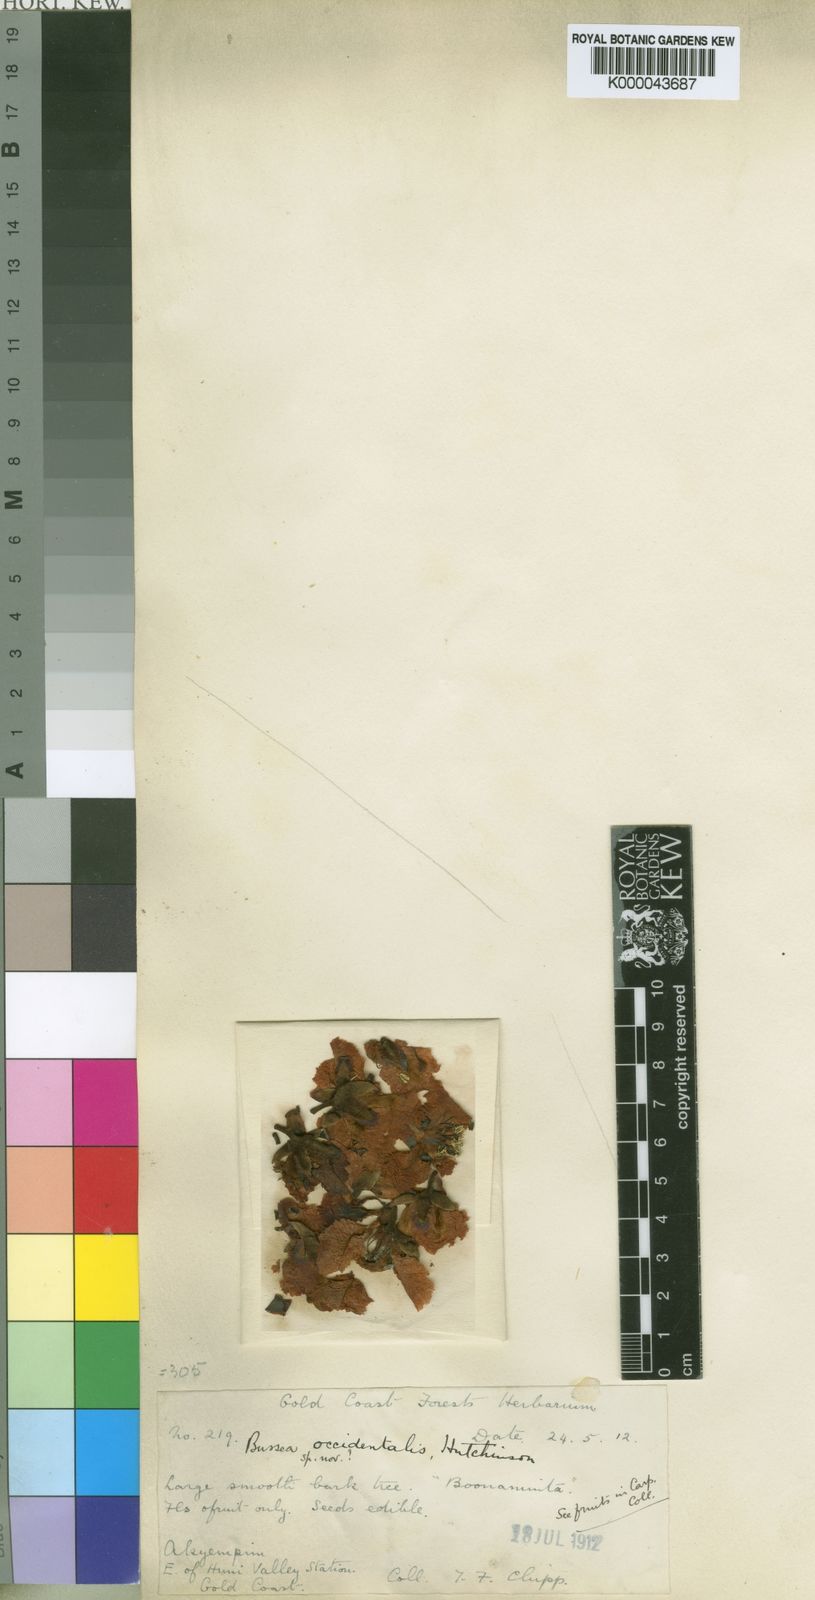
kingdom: Plantae
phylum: Tracheophyta
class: Magnoliopsida
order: Fabales
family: Fabaceae
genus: Bussea
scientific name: Bussea occidentalis
